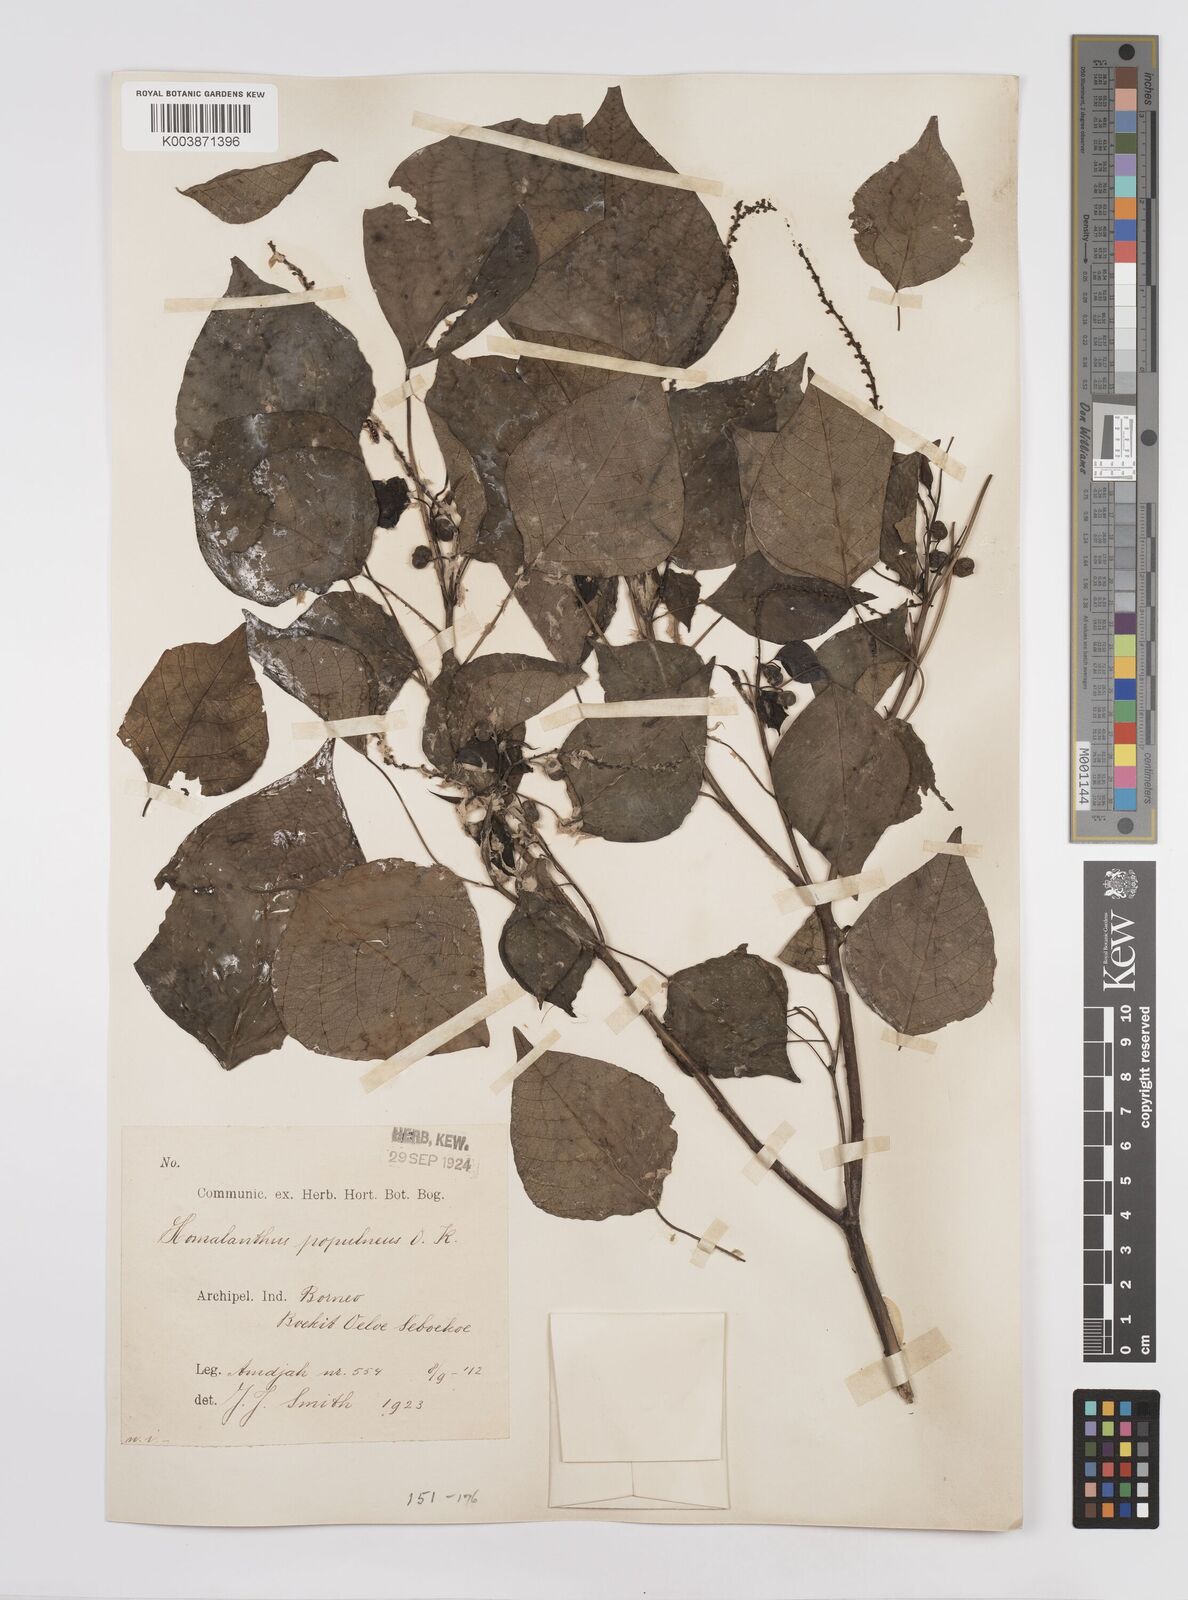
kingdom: Plantae
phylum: Tracheophyta
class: Magnoliopsida
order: Malpighiales
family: Euphorbiaceae
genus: Homalanthus
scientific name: Homalanthus populneus
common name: Spurge
